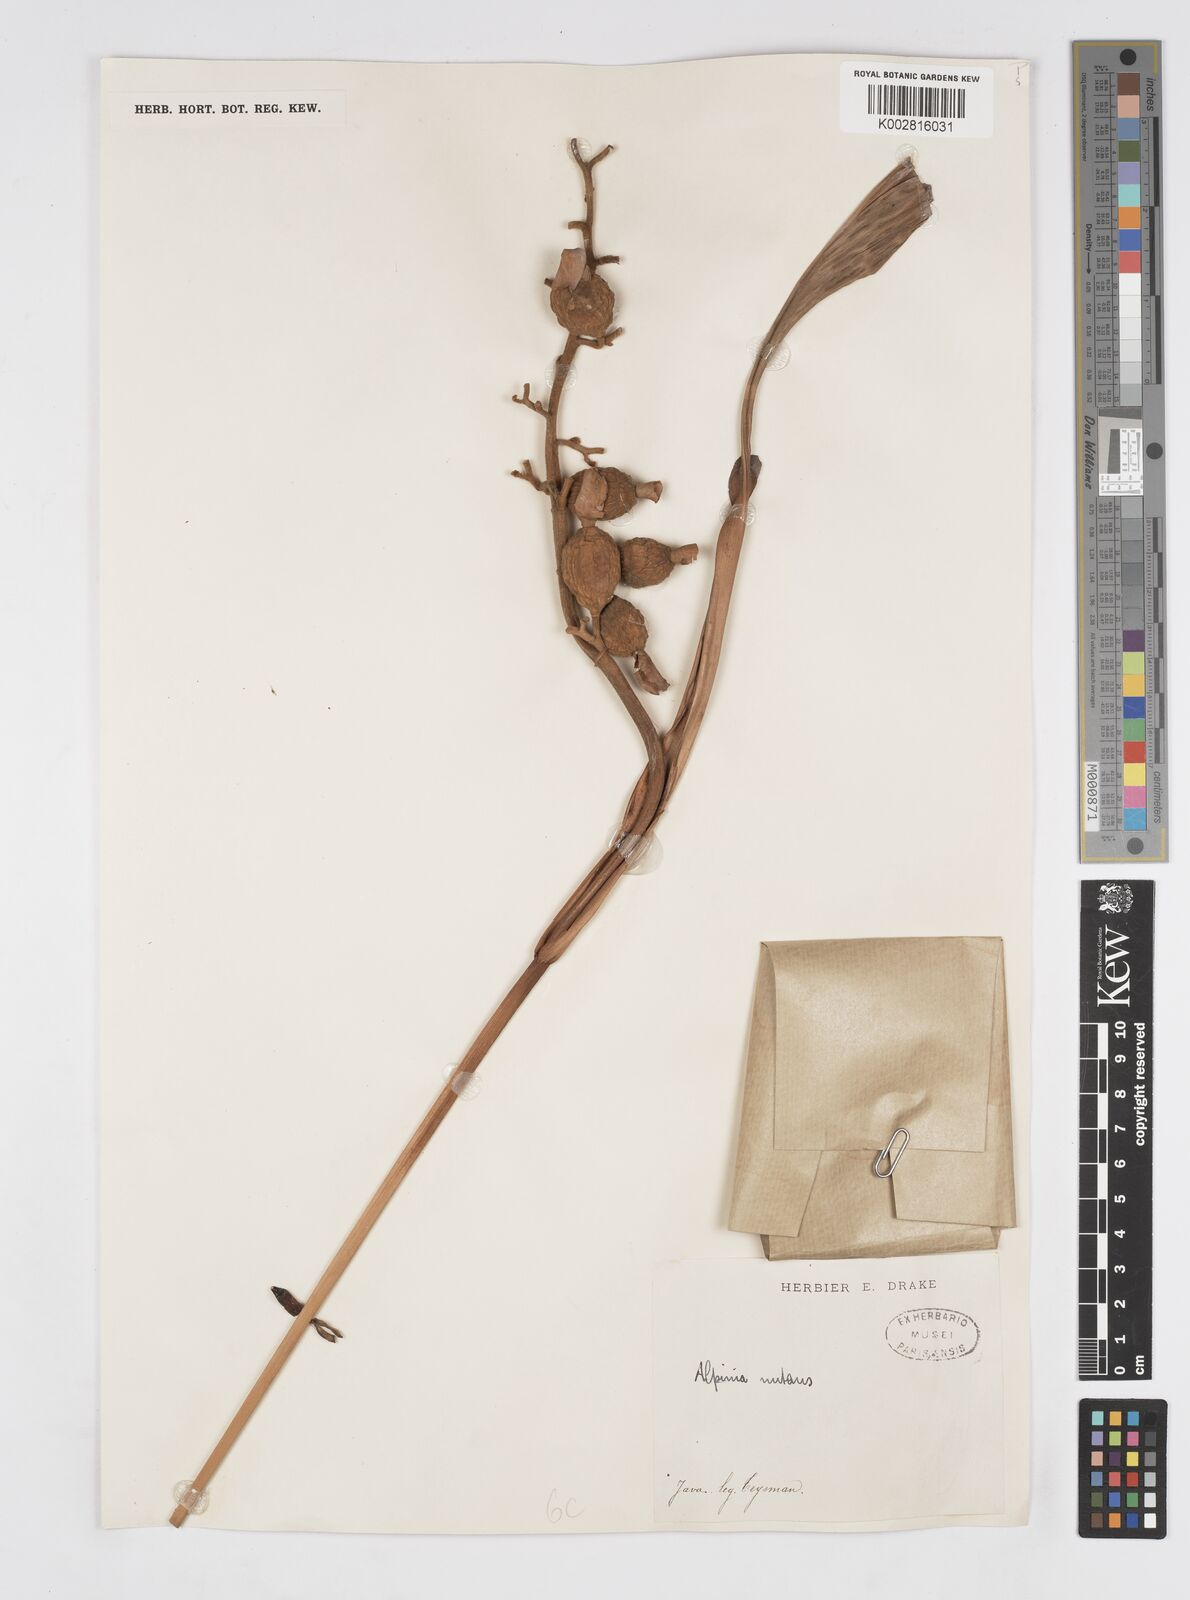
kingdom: Plantae
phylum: Tracheophyta
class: Liliopsida
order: Zingiberales
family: Zingiberaceae
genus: Alpinia
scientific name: Alpinia nutans
